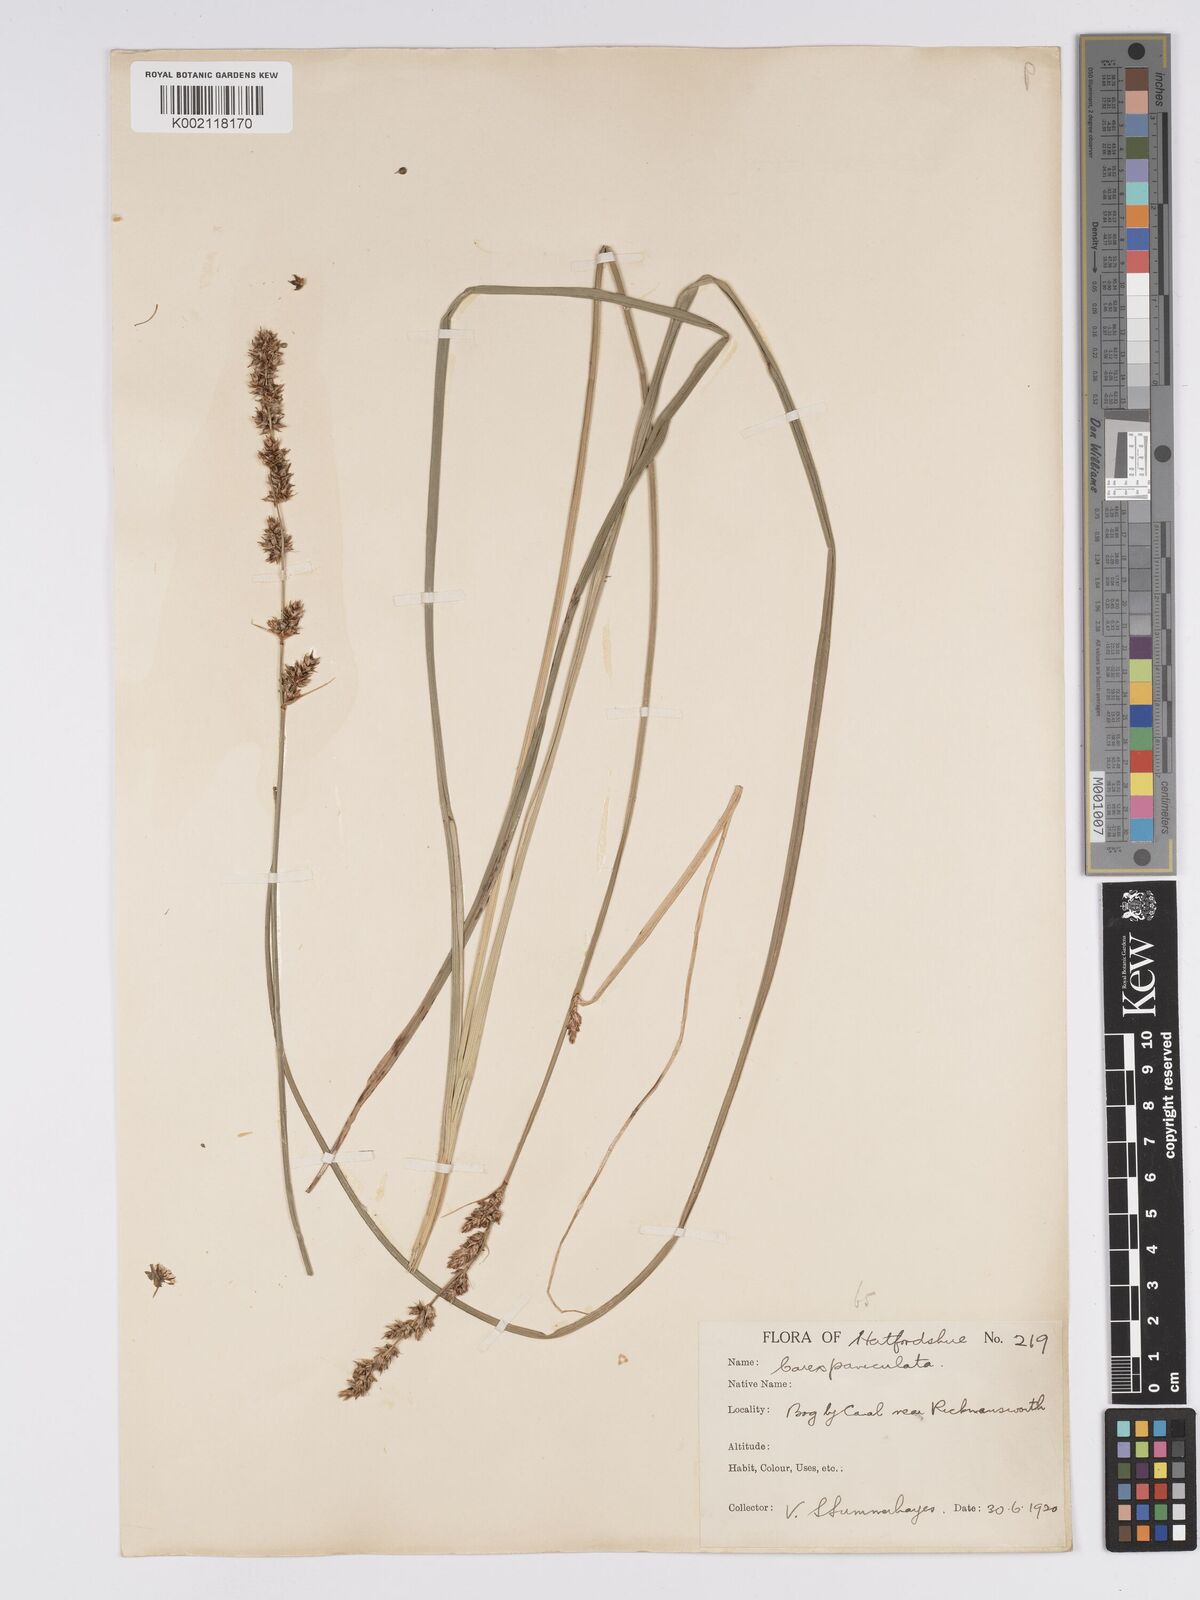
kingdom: Plantae
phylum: Tracheophyta
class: Liliopsida
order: Poales
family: Cyperaceae
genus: Carex
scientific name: Carex paniculata
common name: Greater tussock-sedge
